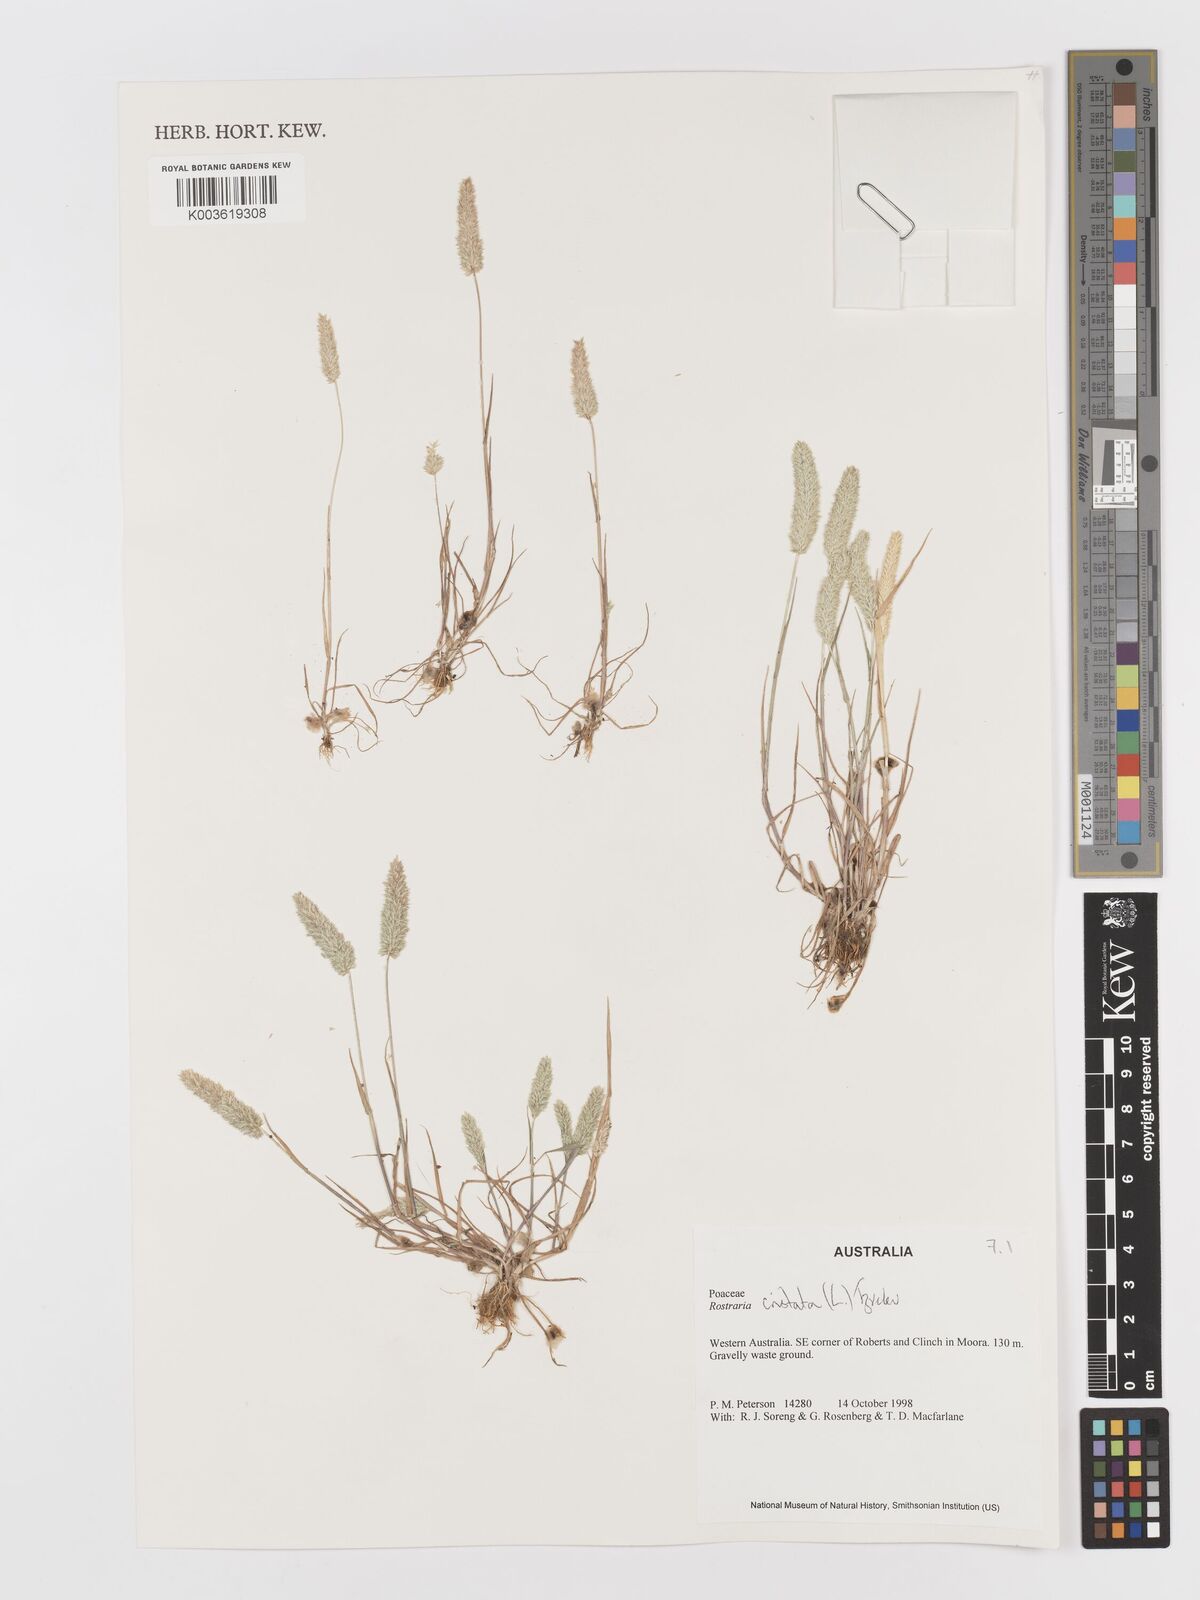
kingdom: Plantae
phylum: Tracheophyta
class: Liliopsida
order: Poales
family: Poaceae
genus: Rostraria
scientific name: Rostraria cristata
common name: Mediterranean hair-grass
